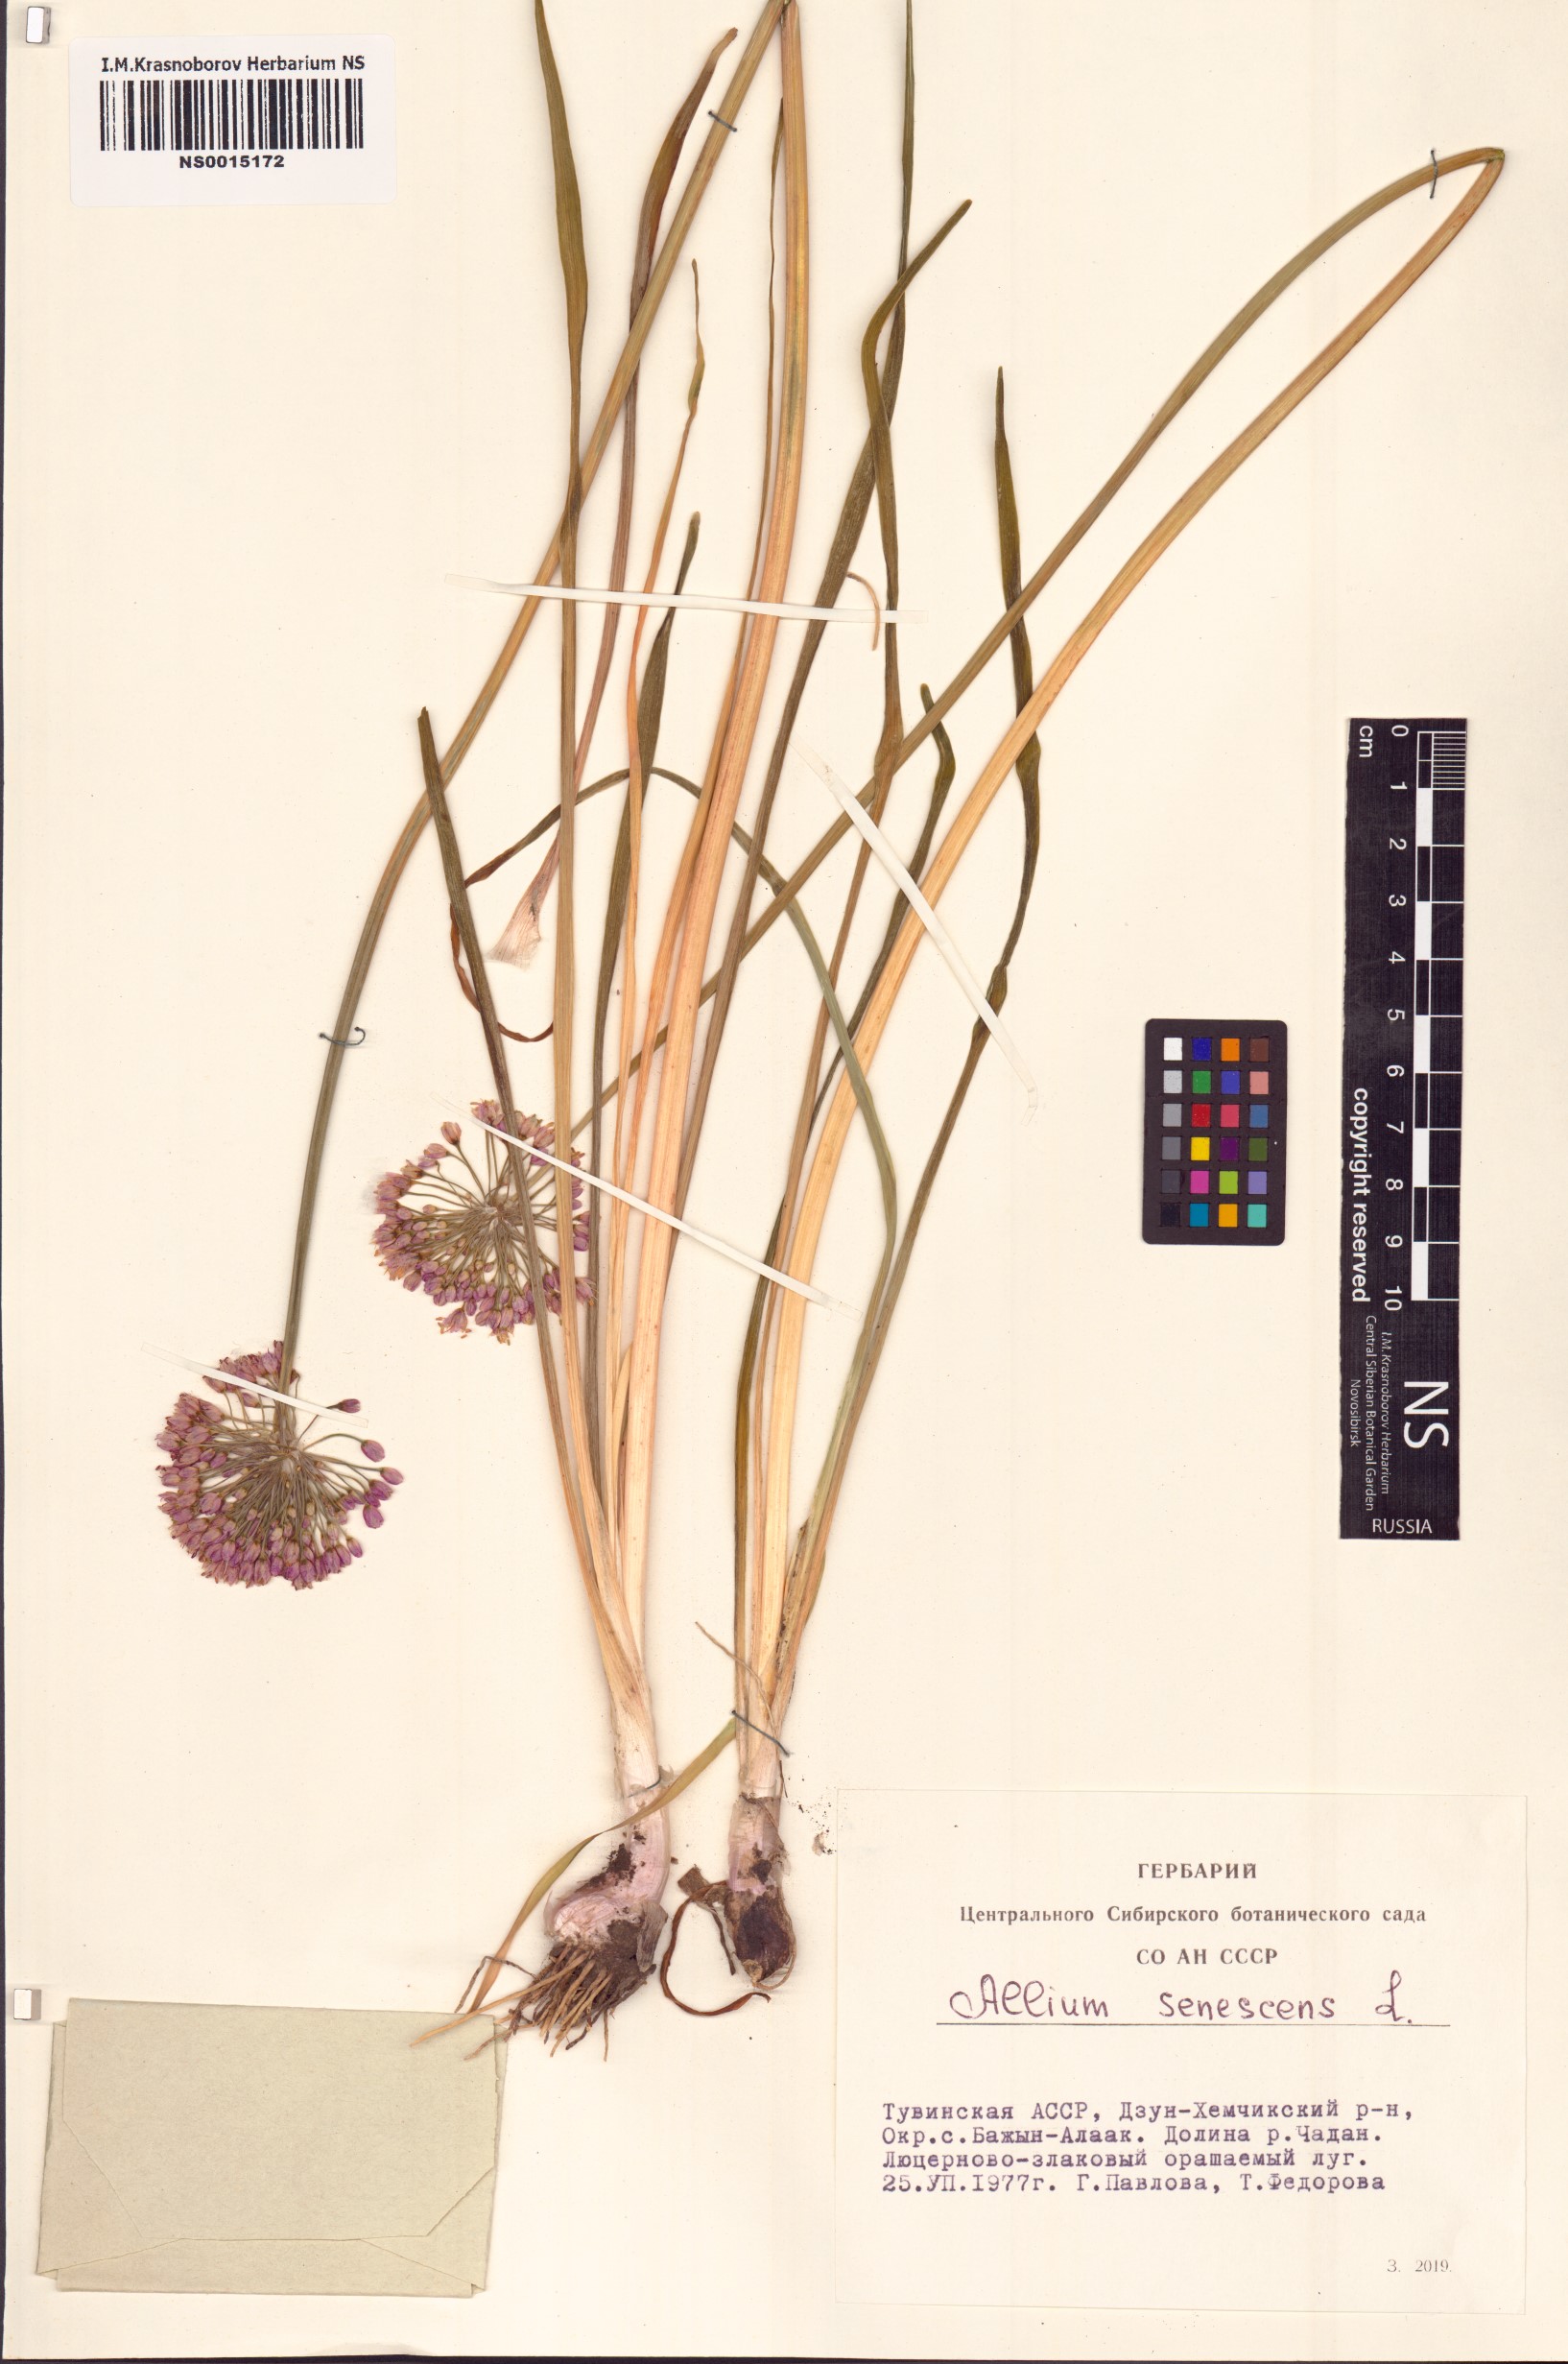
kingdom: Plantae
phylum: Tracheophyta
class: Liliopsida
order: Asparagales
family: Amaryllidaceae
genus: Allium
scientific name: Allium senescens
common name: German garlic
